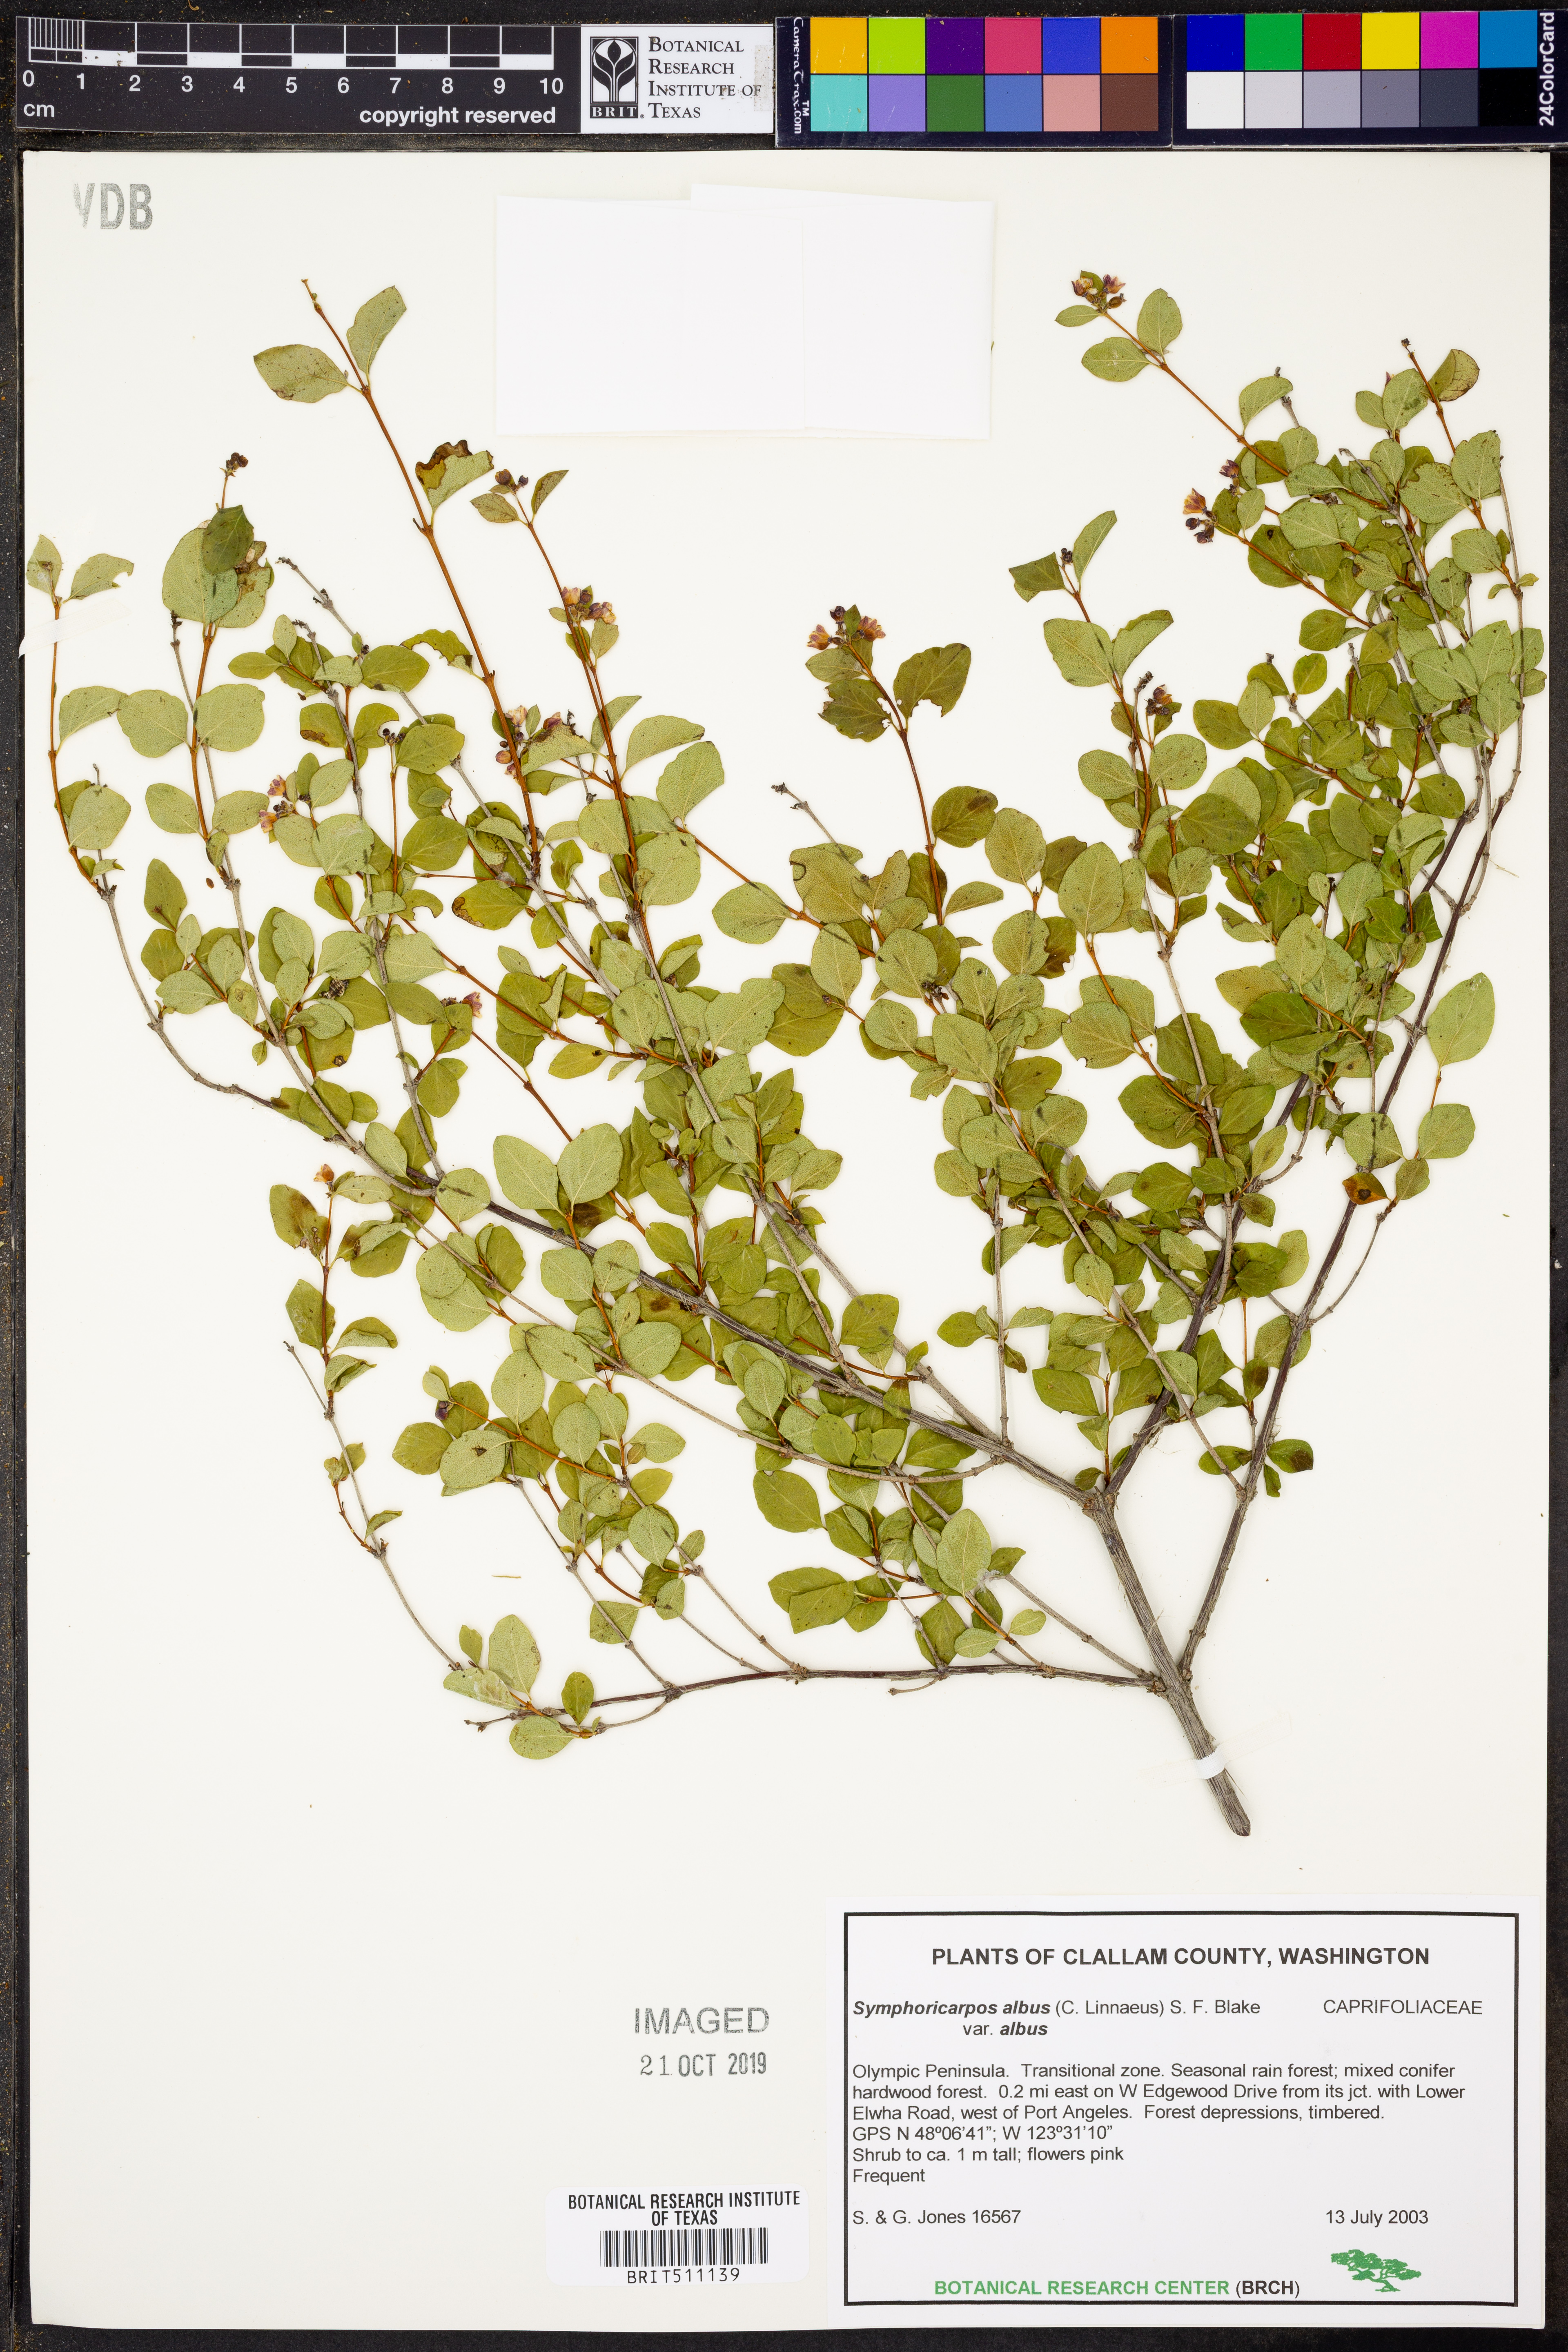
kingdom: Plantae
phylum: Tracheophyta
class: Magnoliopsida
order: Dipsacales
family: Caprifoliaceae
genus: Symphoricarpos
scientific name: Symphoricarpos albus
